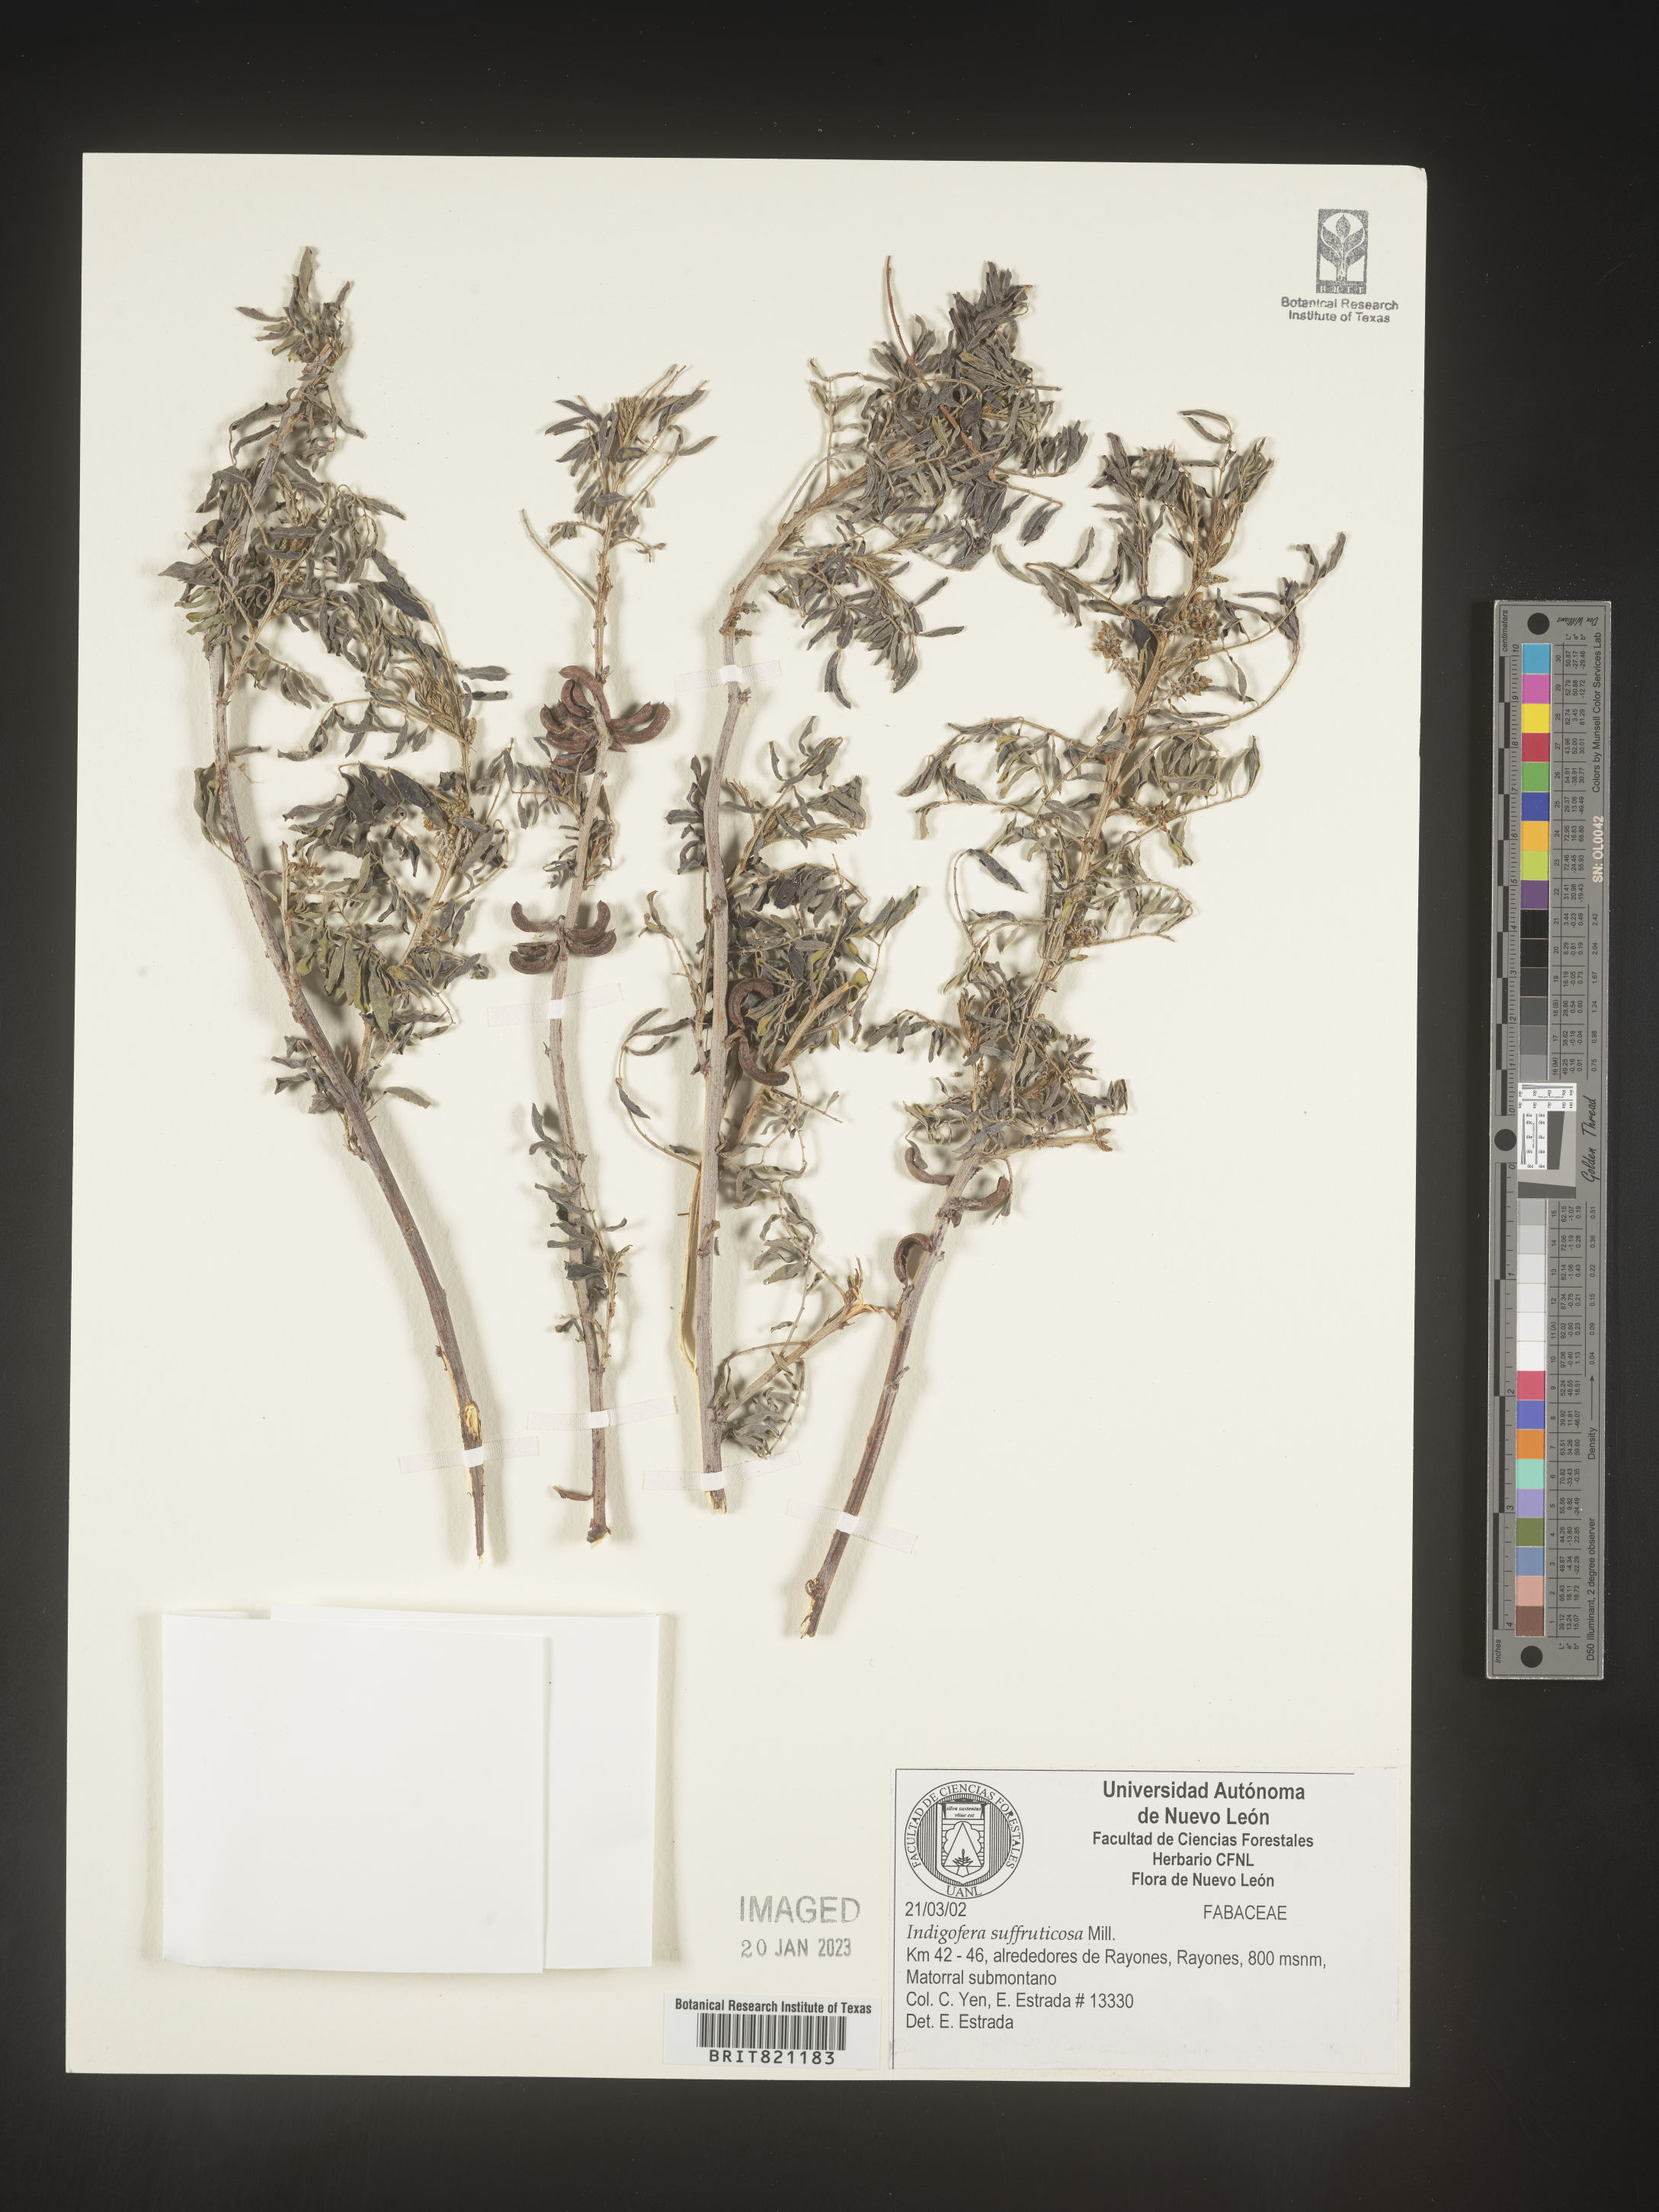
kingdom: Plantae
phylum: Tracheophyta
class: Magnoliopsida
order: Fabales
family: Fabaceae
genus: Indigofera
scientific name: Indigofera
